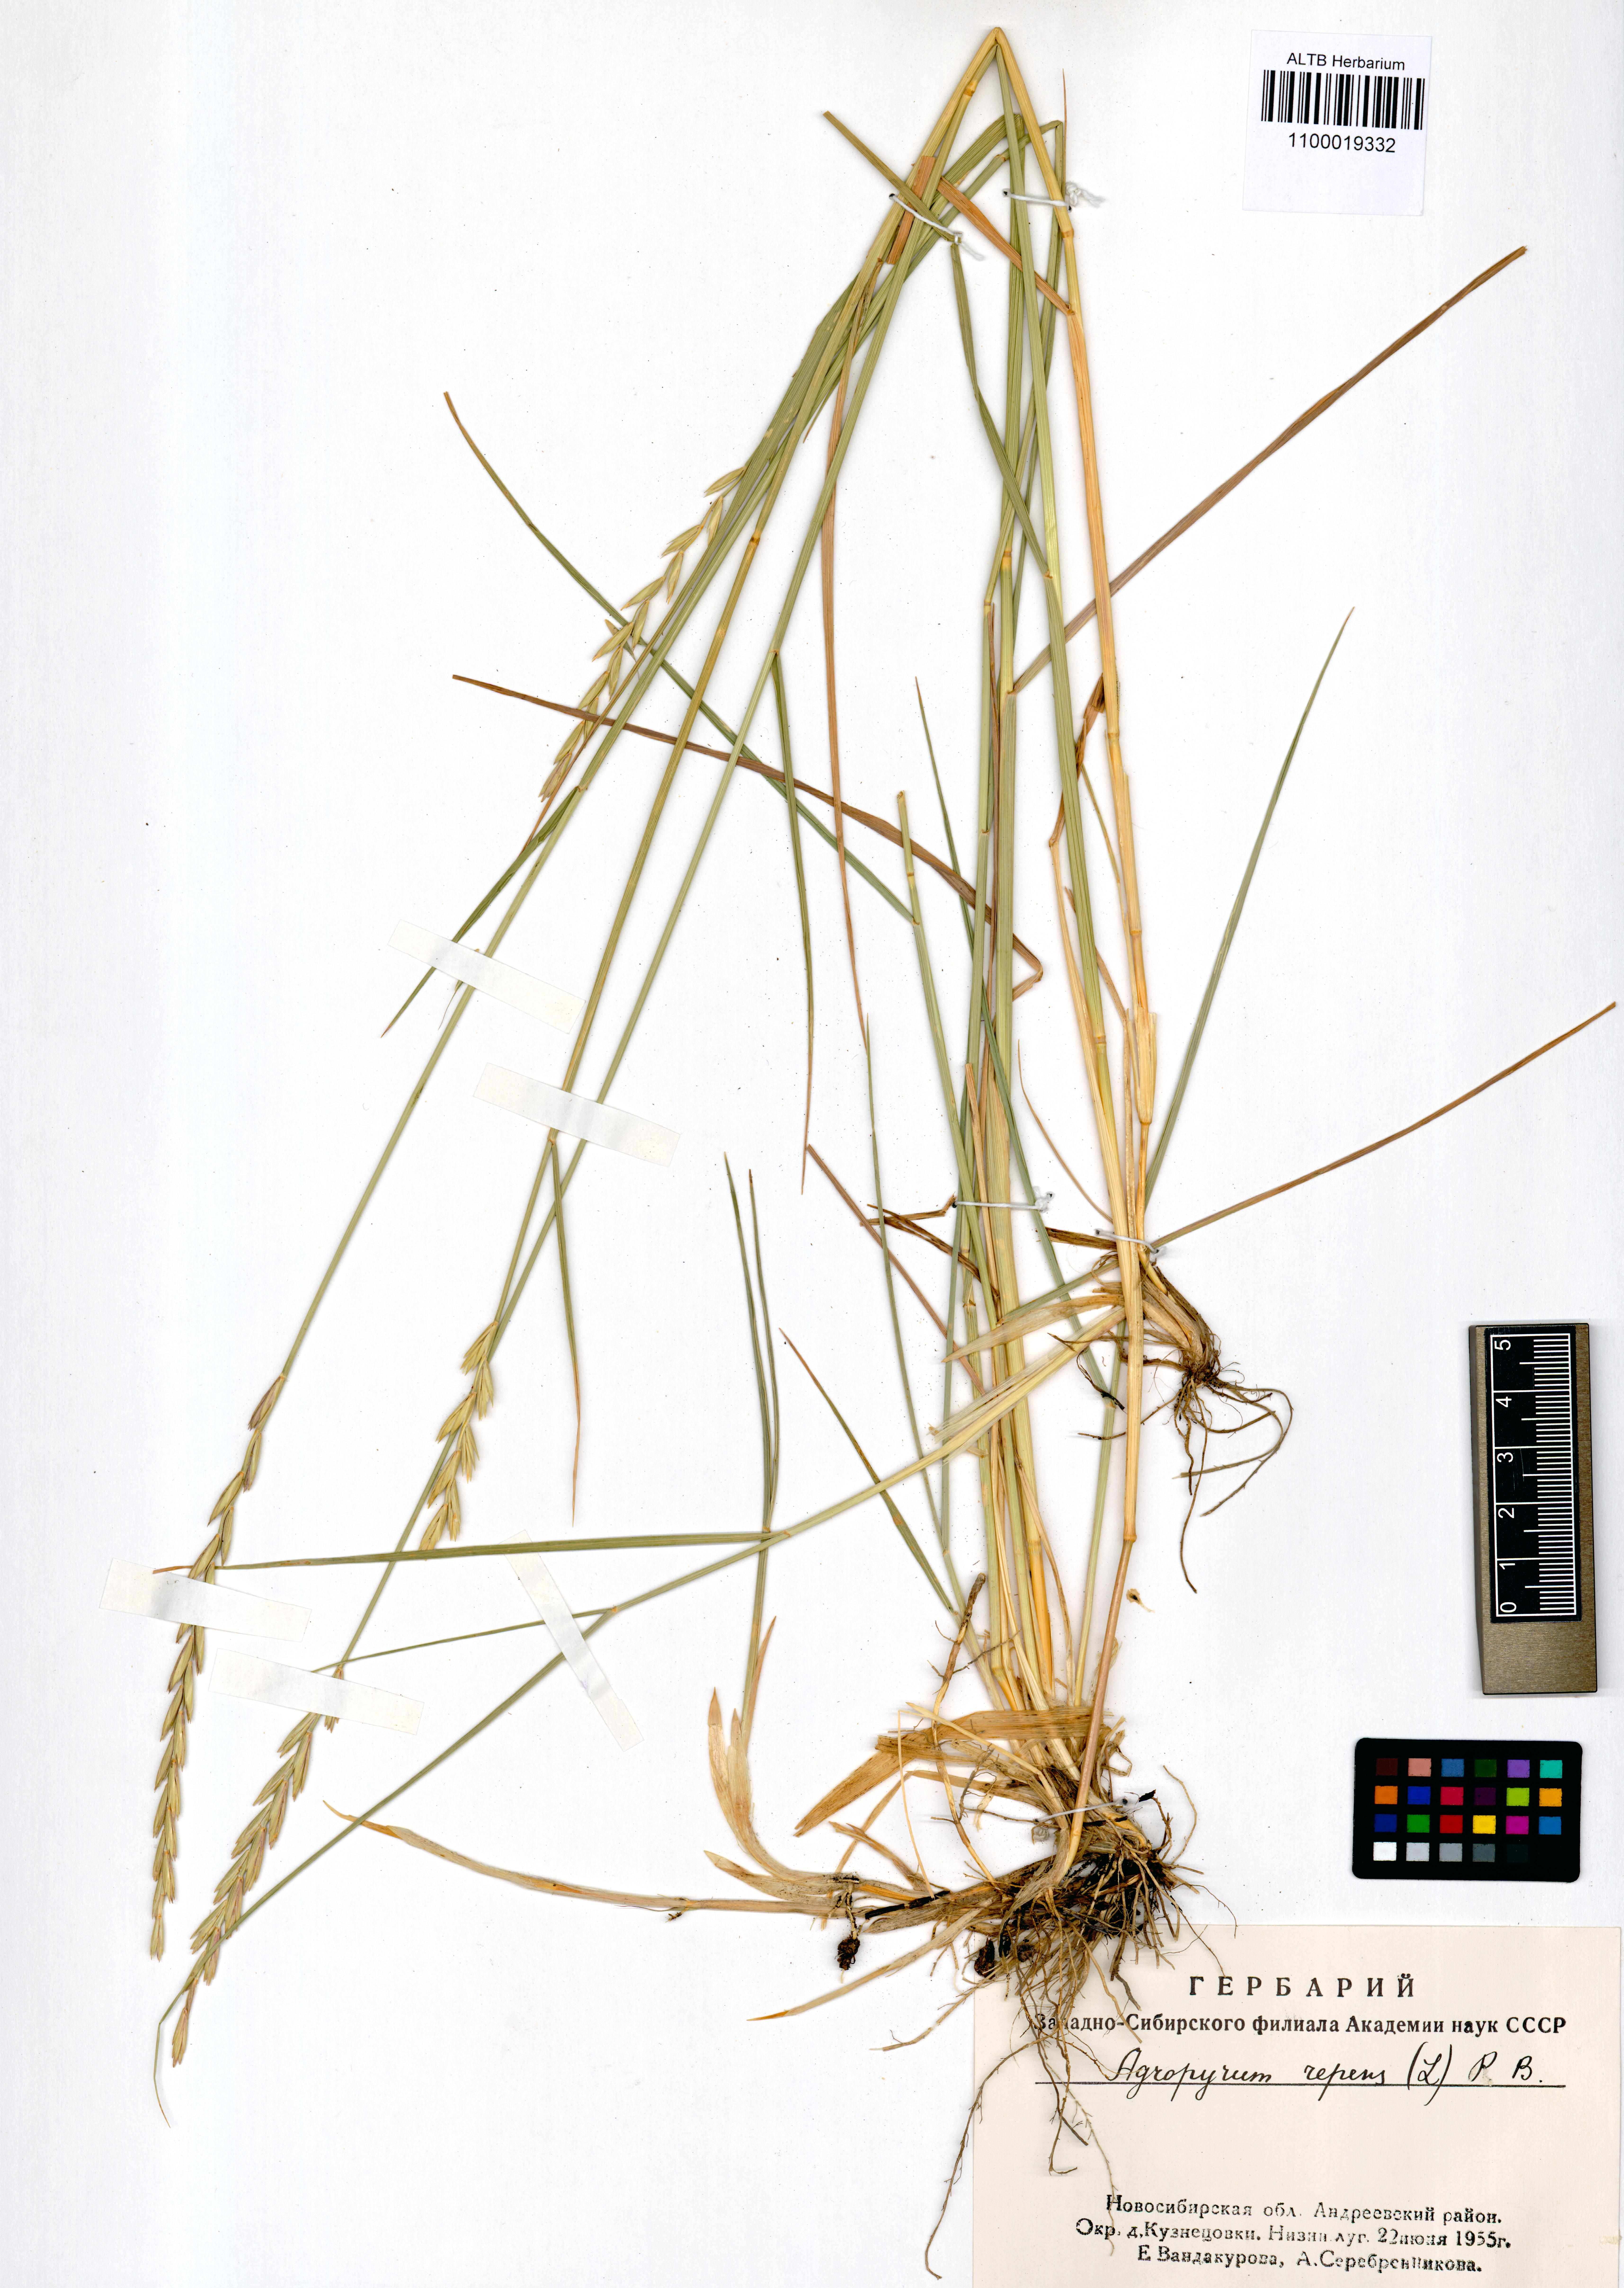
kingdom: Plantae
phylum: Tracheophyta
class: Liliopsida
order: Poales
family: Poaceae
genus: Elymus
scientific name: Elymus repens
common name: Quackgrass
